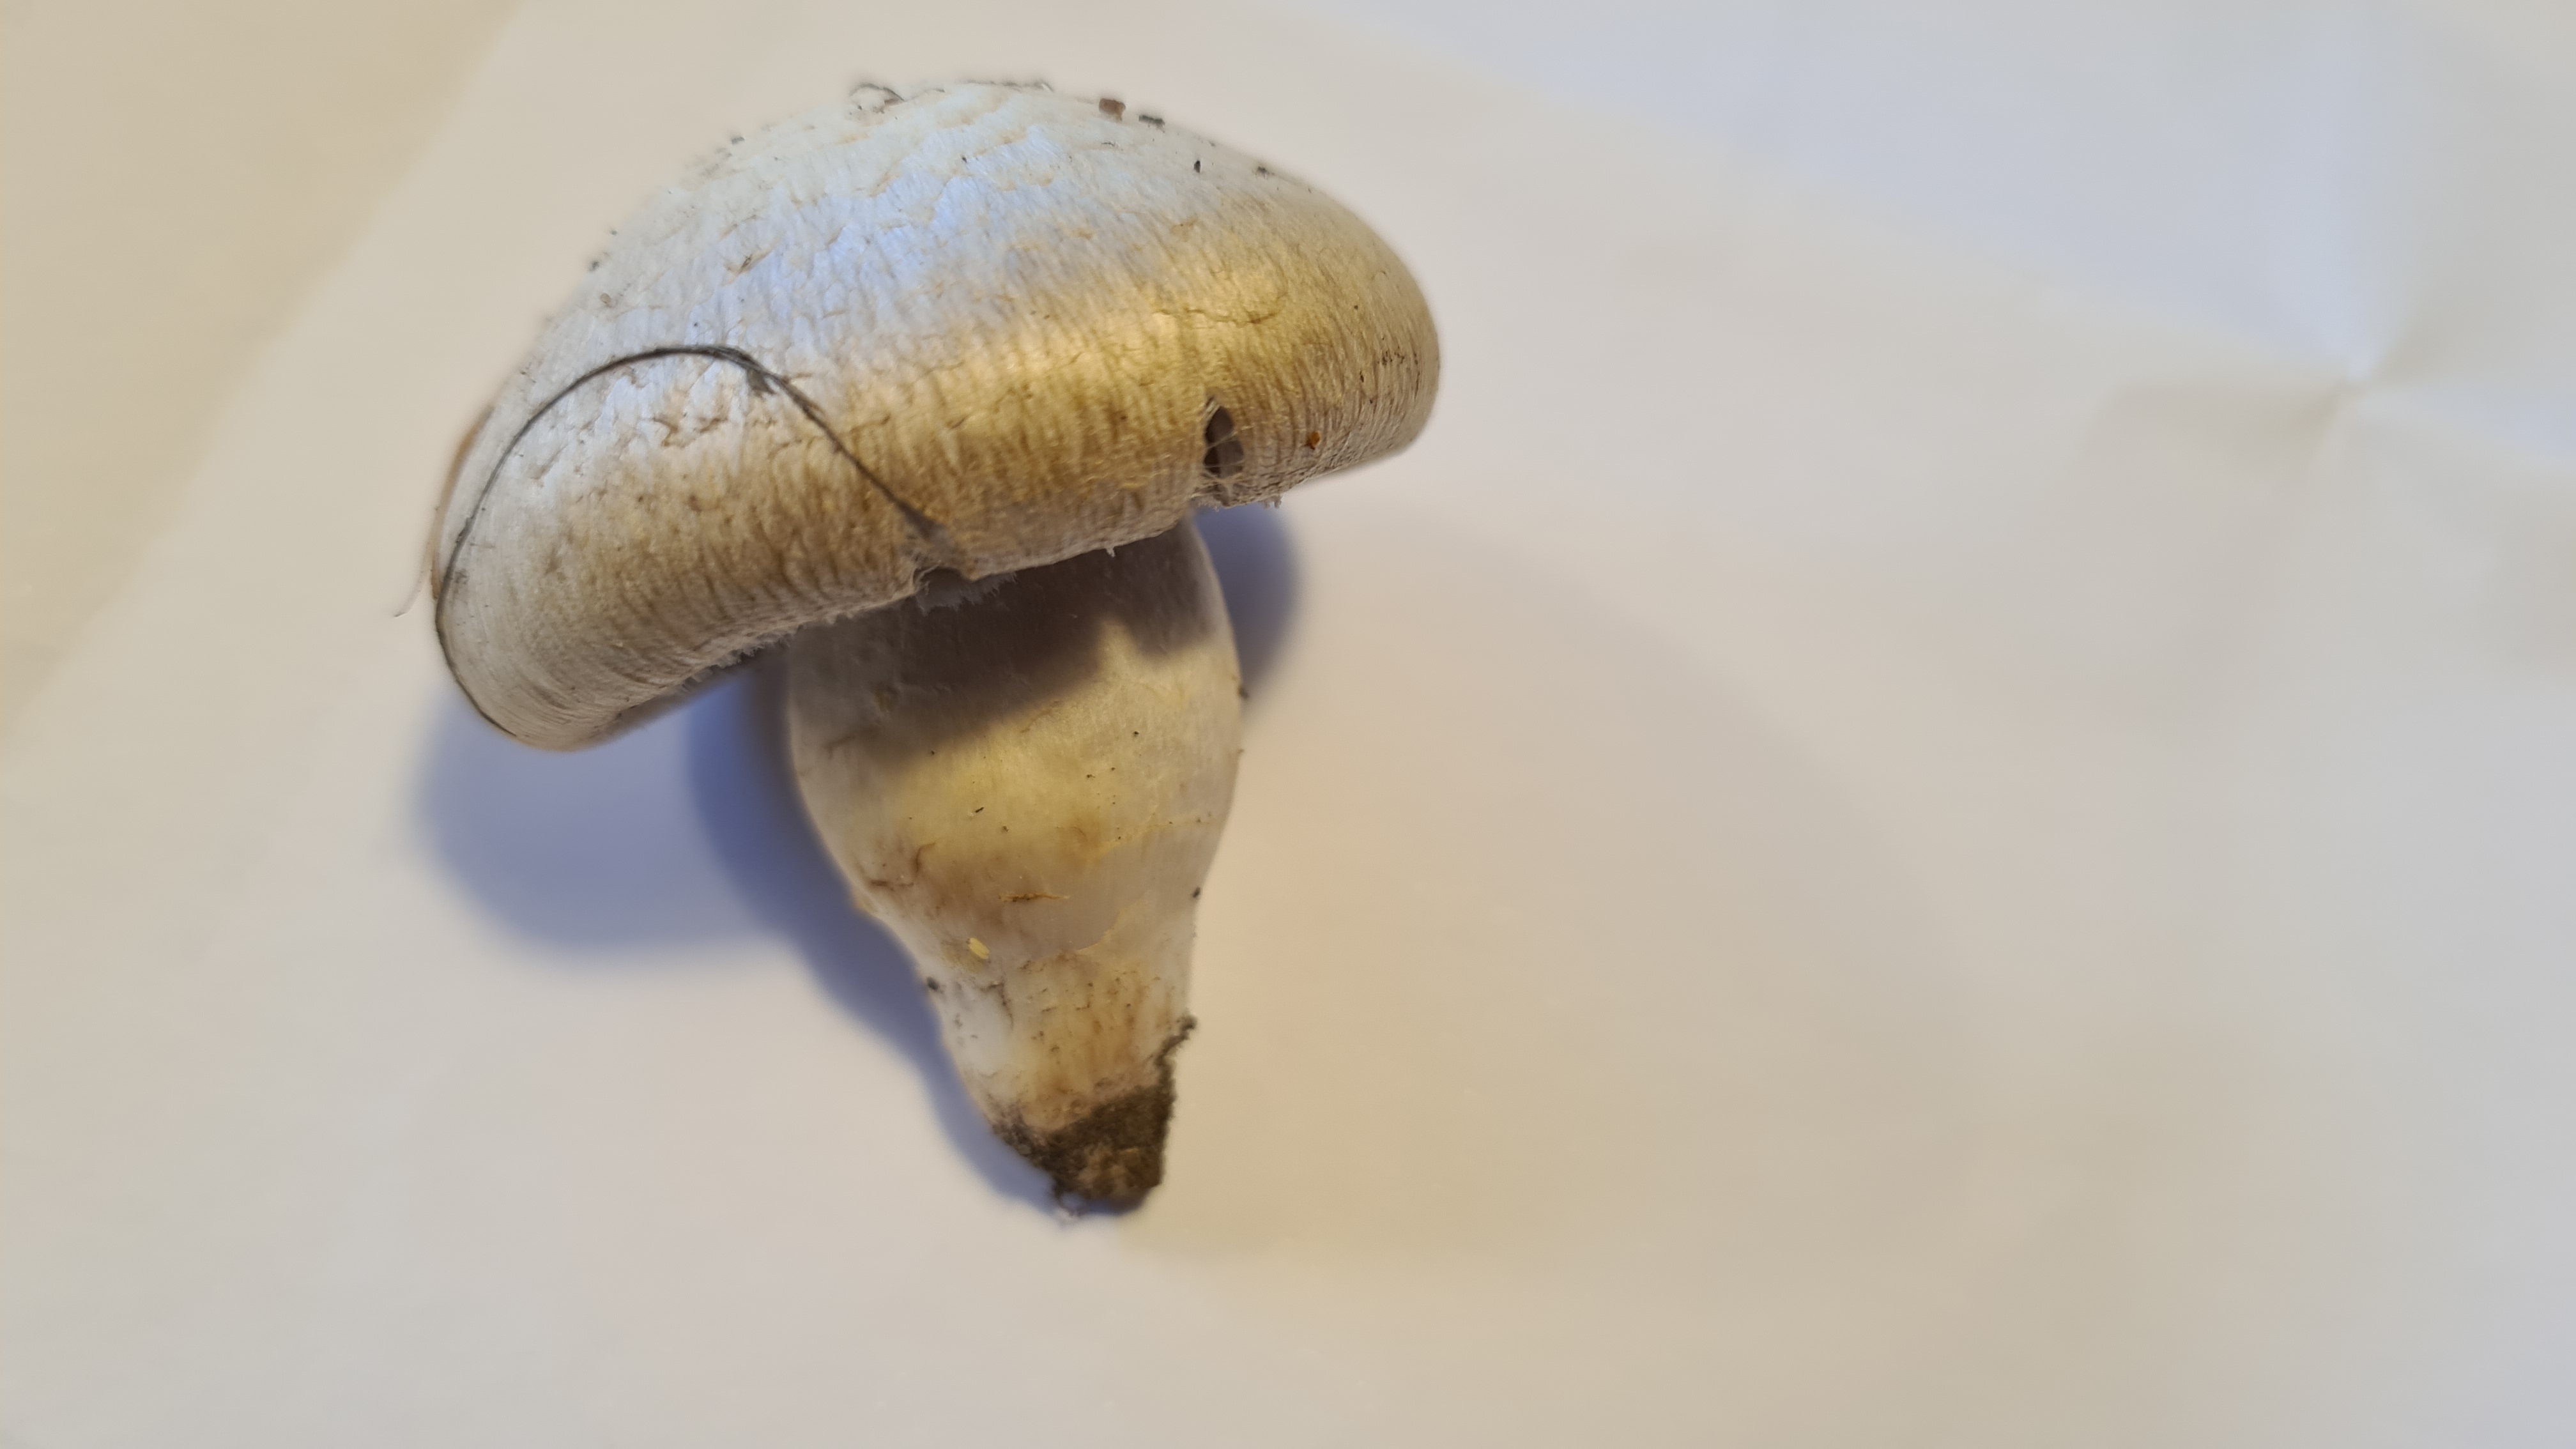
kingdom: Fungi
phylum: Basidiomycota
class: Agaricomycetes
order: Agaricales
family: Agaricaceae
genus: Agaricus
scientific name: Agaricus campestris
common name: mark-champignon
